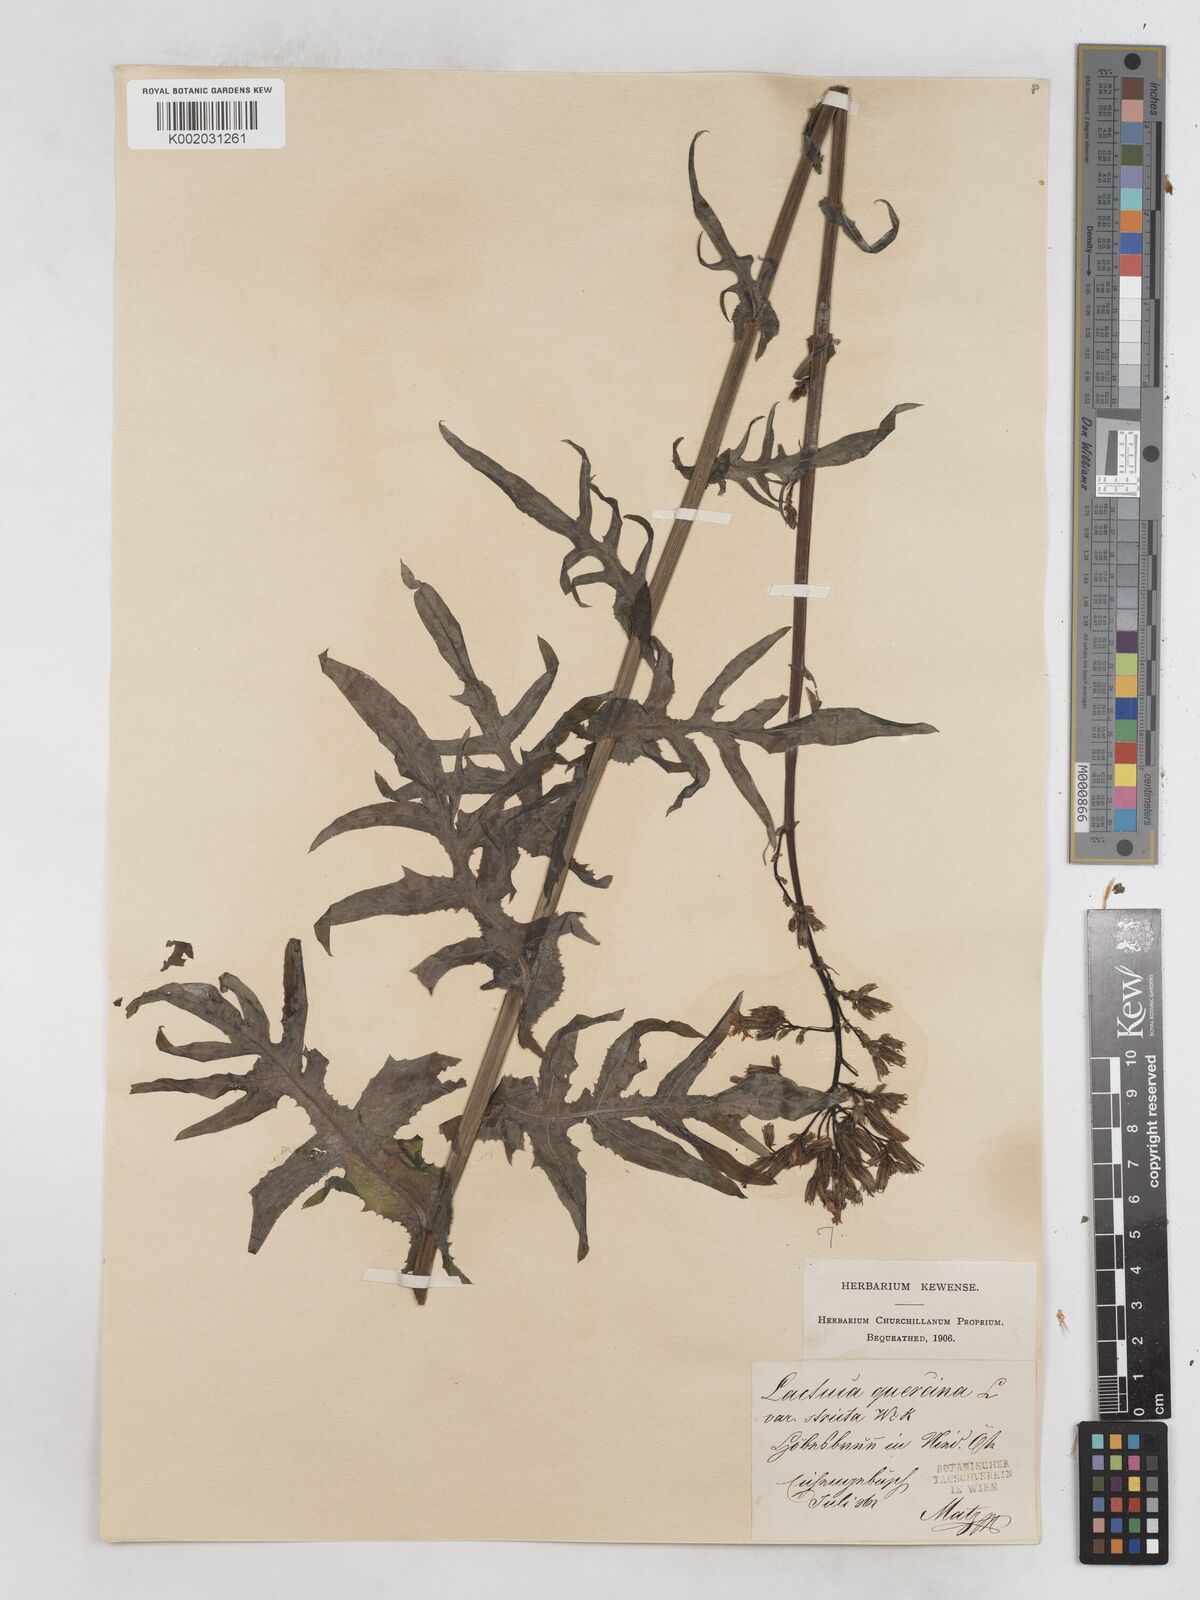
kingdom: Plantae
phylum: Tracheophyta
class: Magnoliopsida
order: Asterales
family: Asteraceae
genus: Lactuca
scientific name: Lactuca quercina
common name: Wild lettuce
